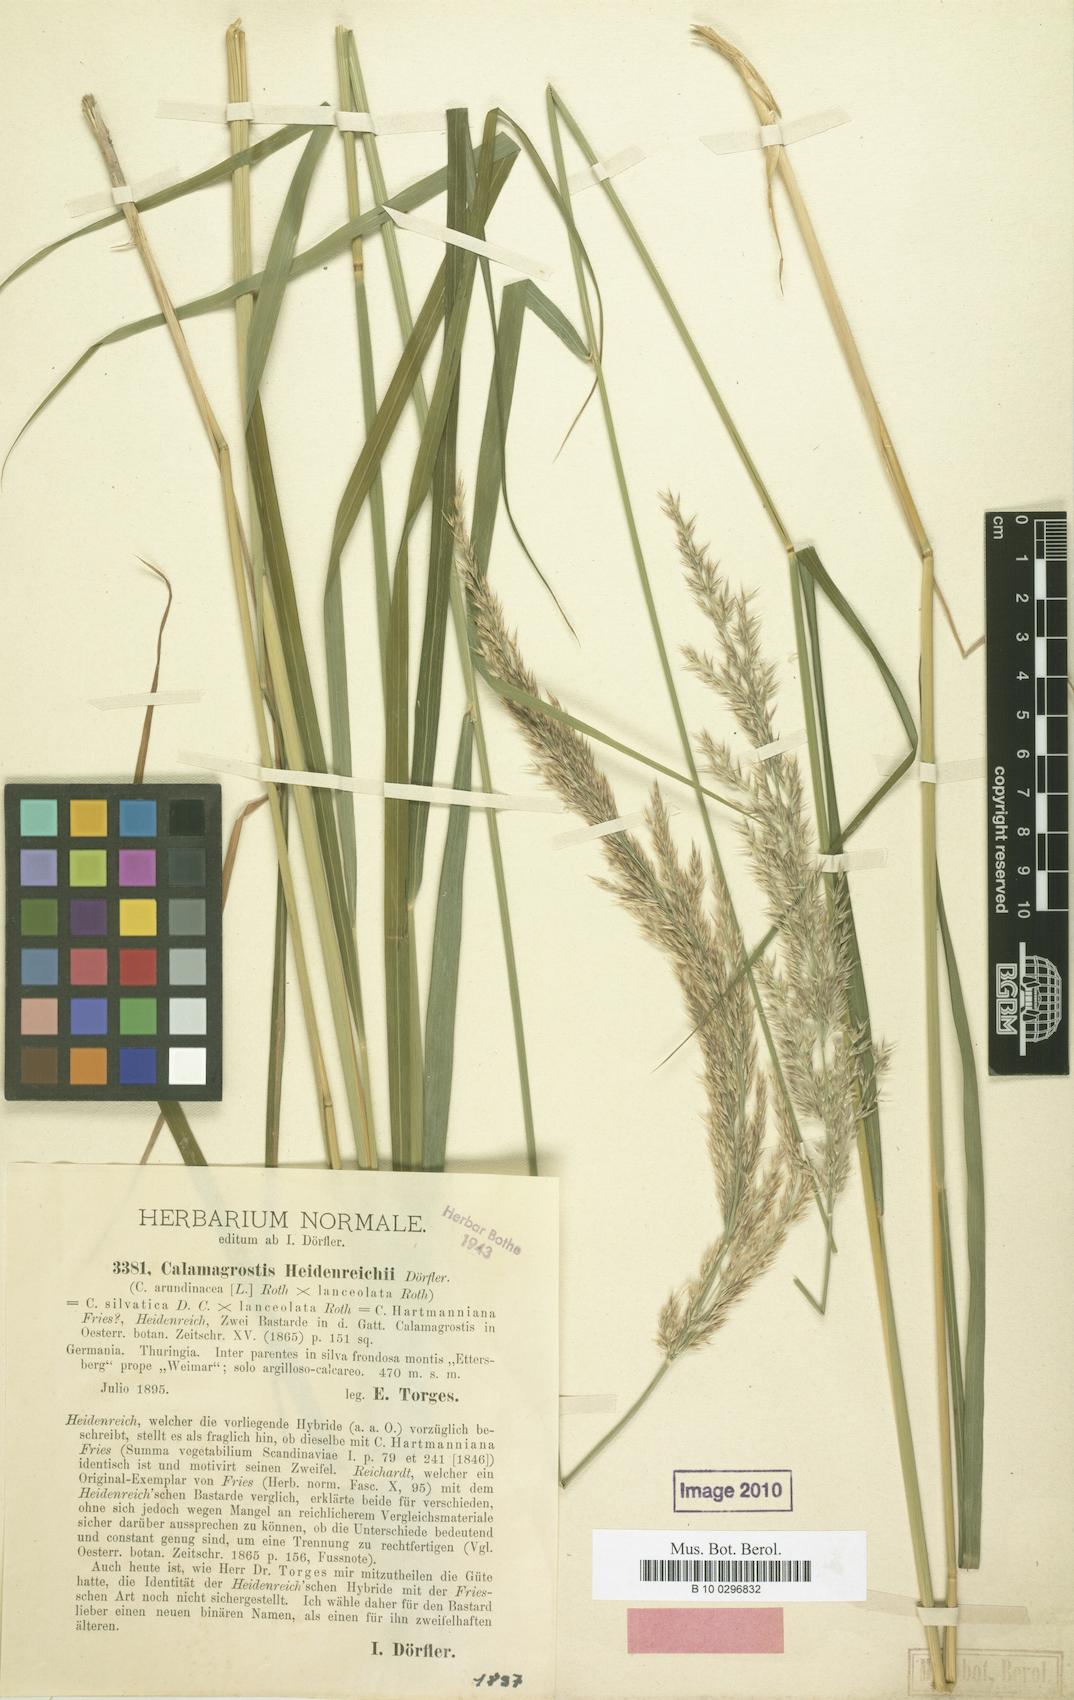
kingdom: Plantae
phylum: Tracheophyta
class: Liliopsida
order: Poales
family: Poaceae
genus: Calamagrostis
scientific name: Calamagrostis hartmaniana
